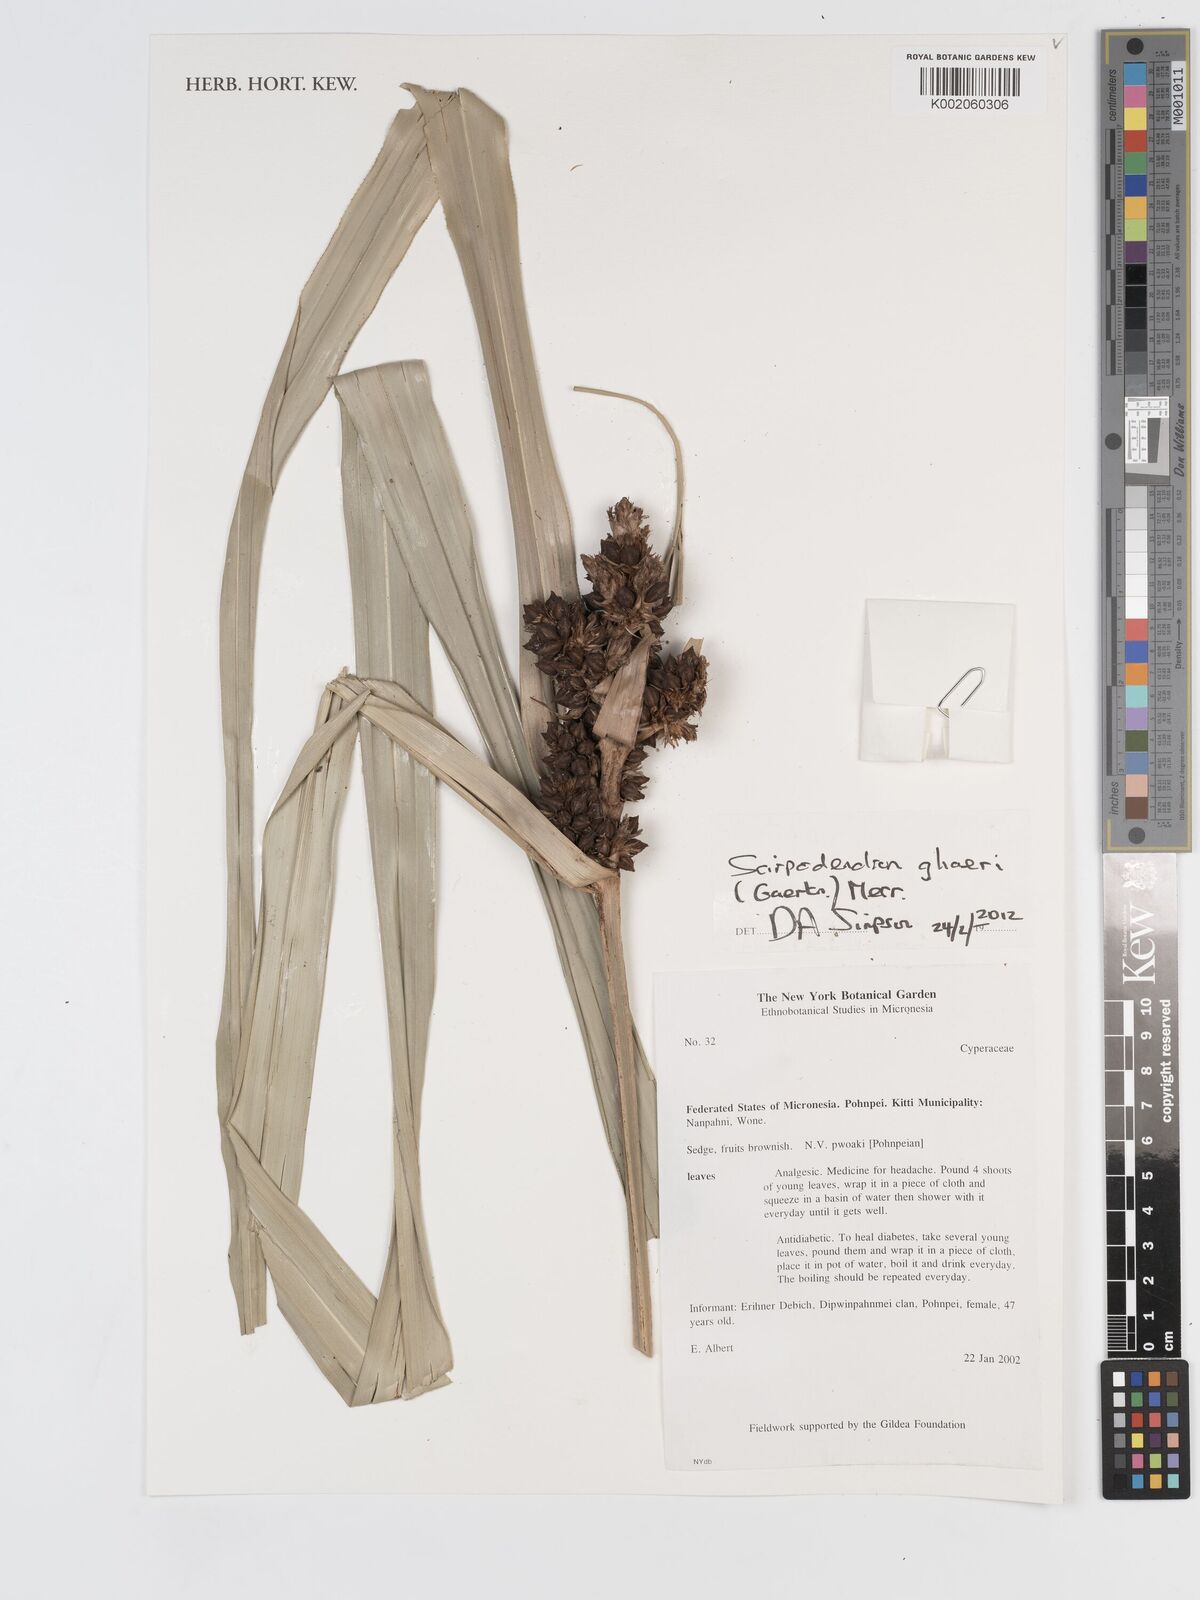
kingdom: Plantae
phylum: Tracheophyta
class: Liliopsida
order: Poales
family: Cyperaceae
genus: Scirpodendron
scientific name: Scirpodendron ghaeri
